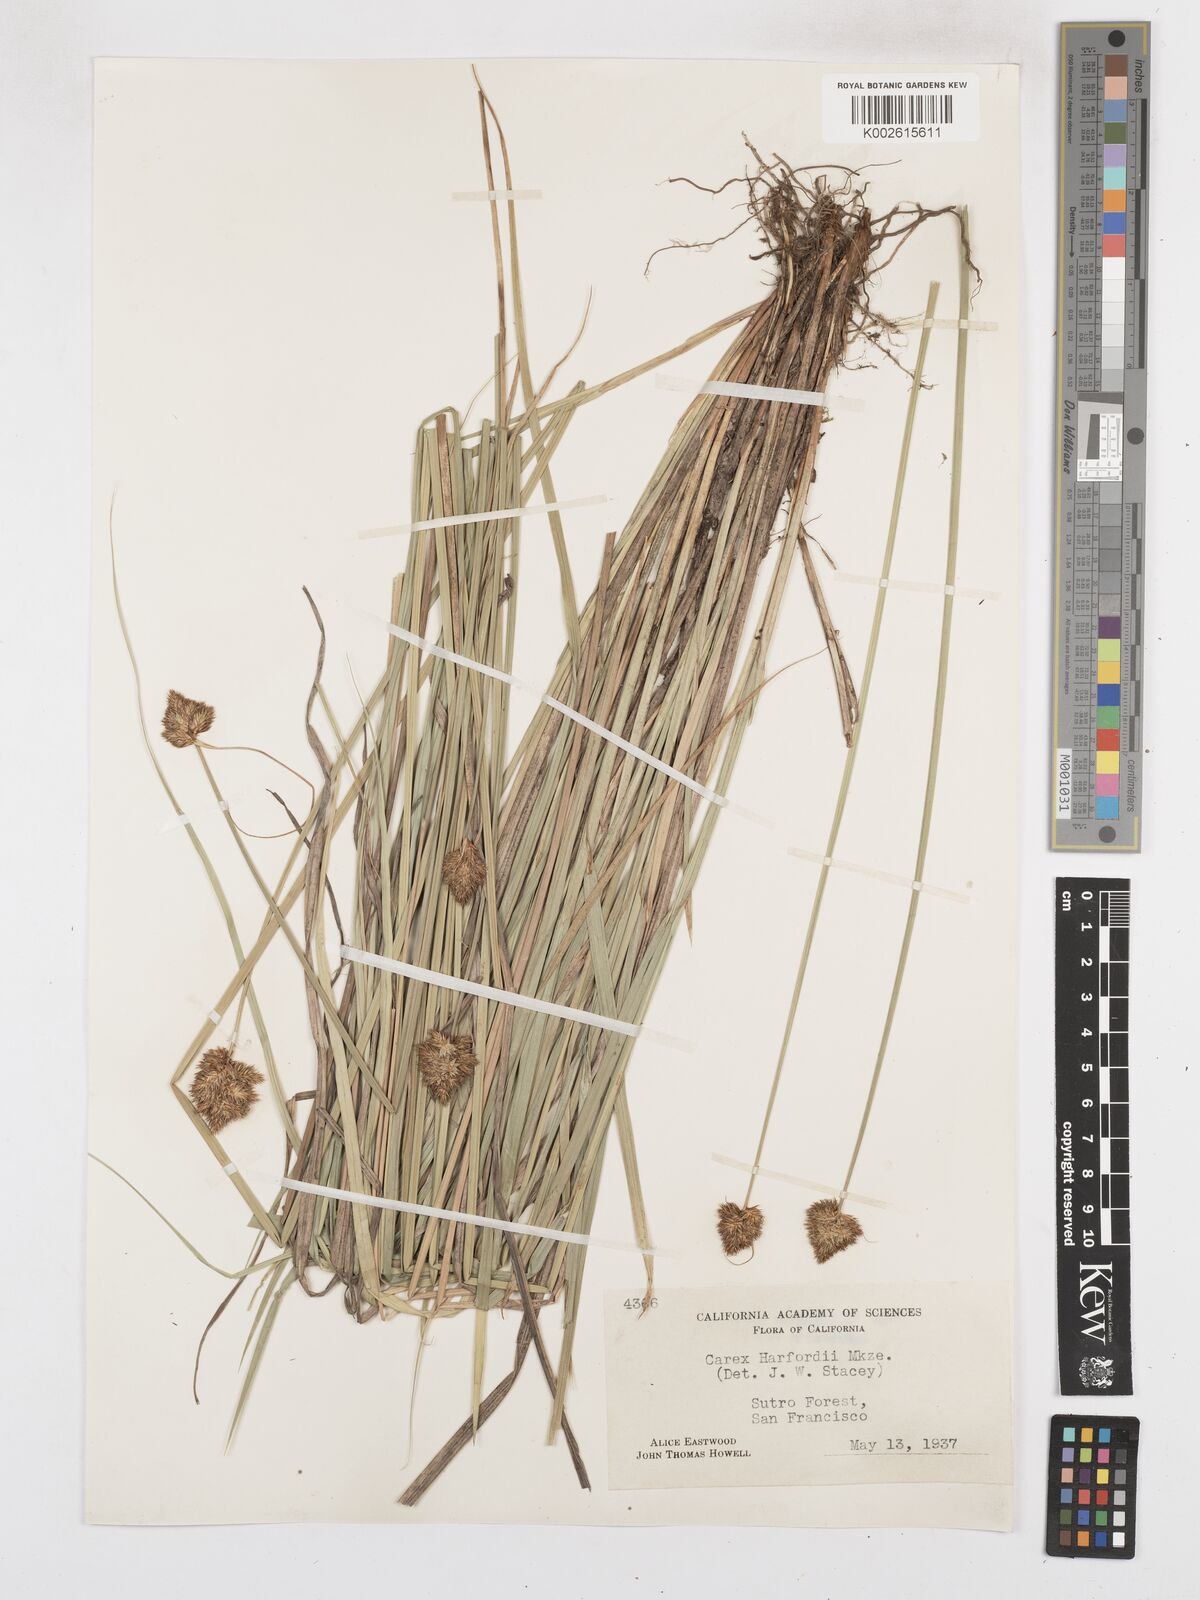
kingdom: Plantae
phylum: Tracheophyta
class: Liliopsida
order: Poales
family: Cyperaceae
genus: Carex
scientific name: Carex harfordii
